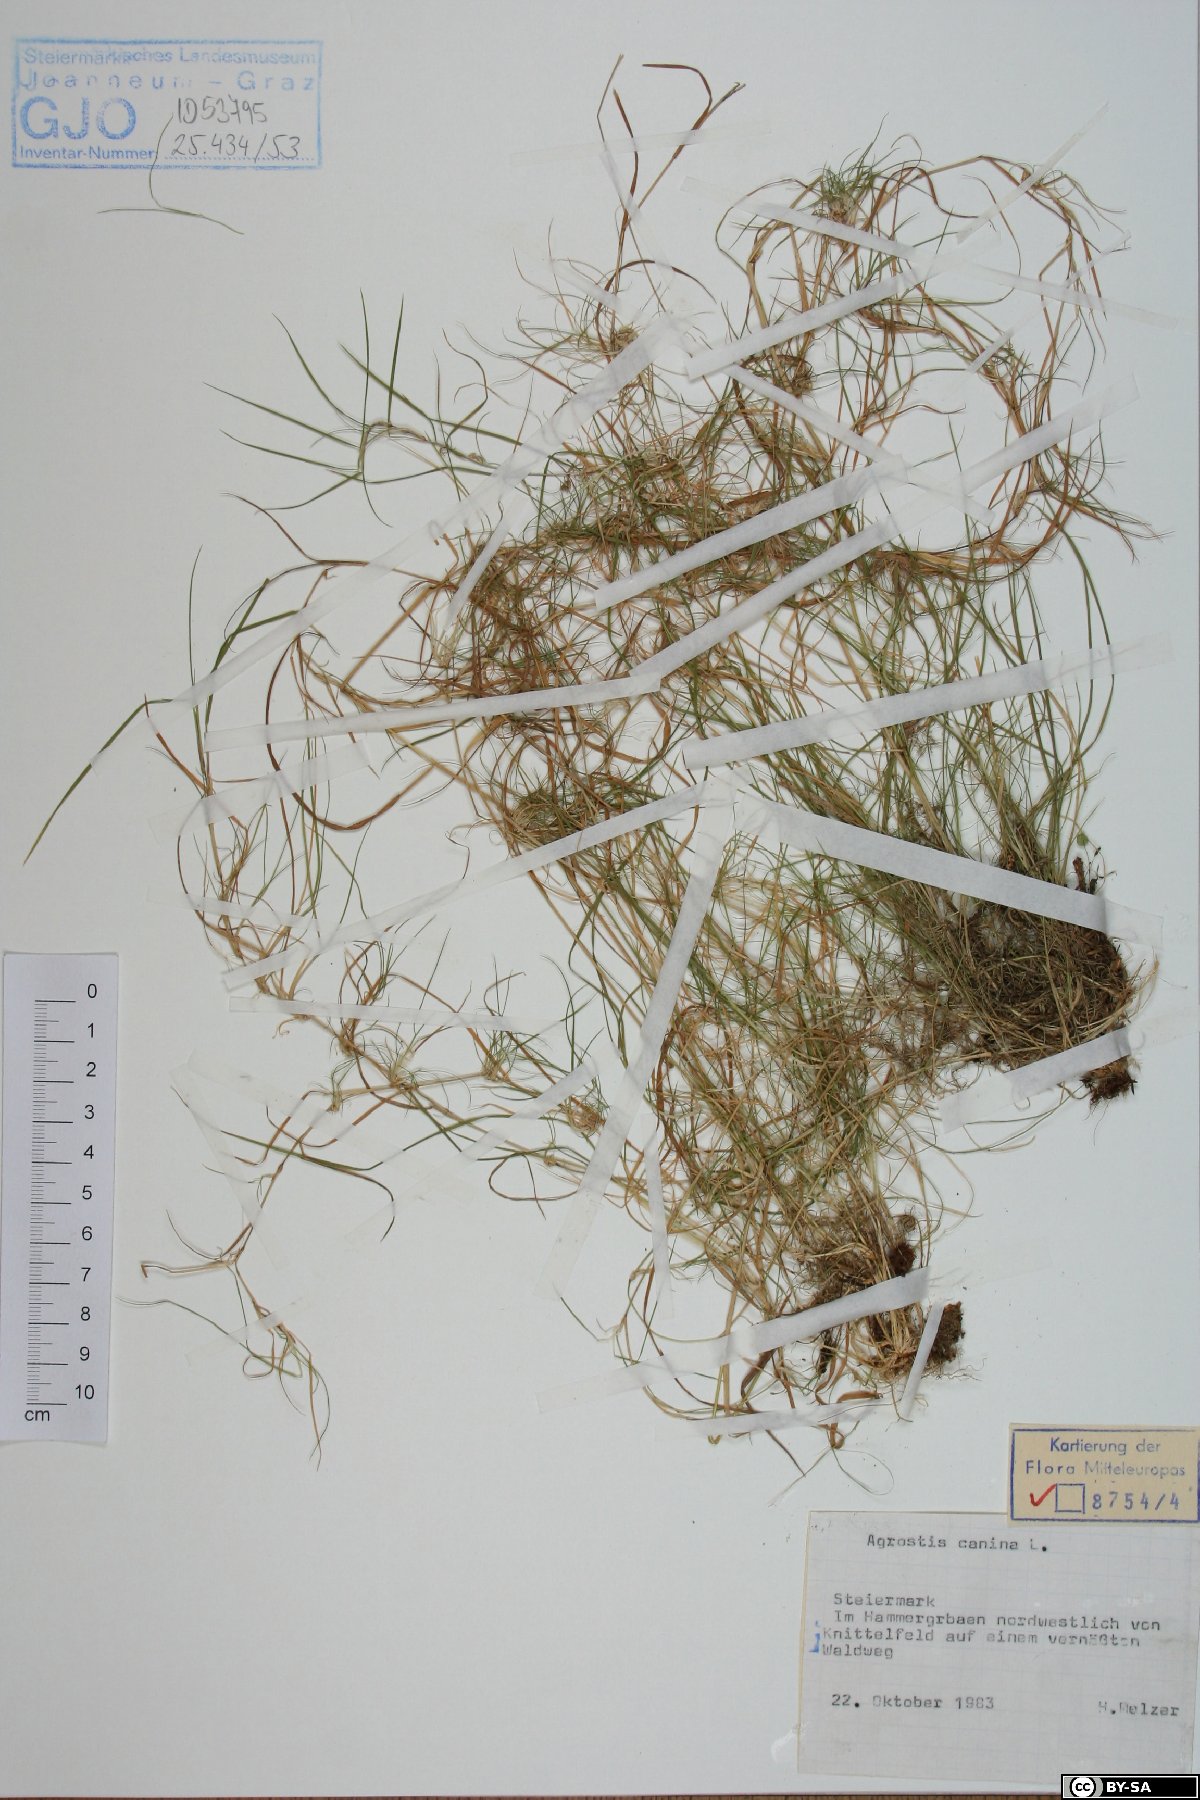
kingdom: Plantae
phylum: Tracheophyta
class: Liliopsida
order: Poales
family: Poaceae
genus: Agrostis
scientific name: Agrostis canina
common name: Velvet bent
